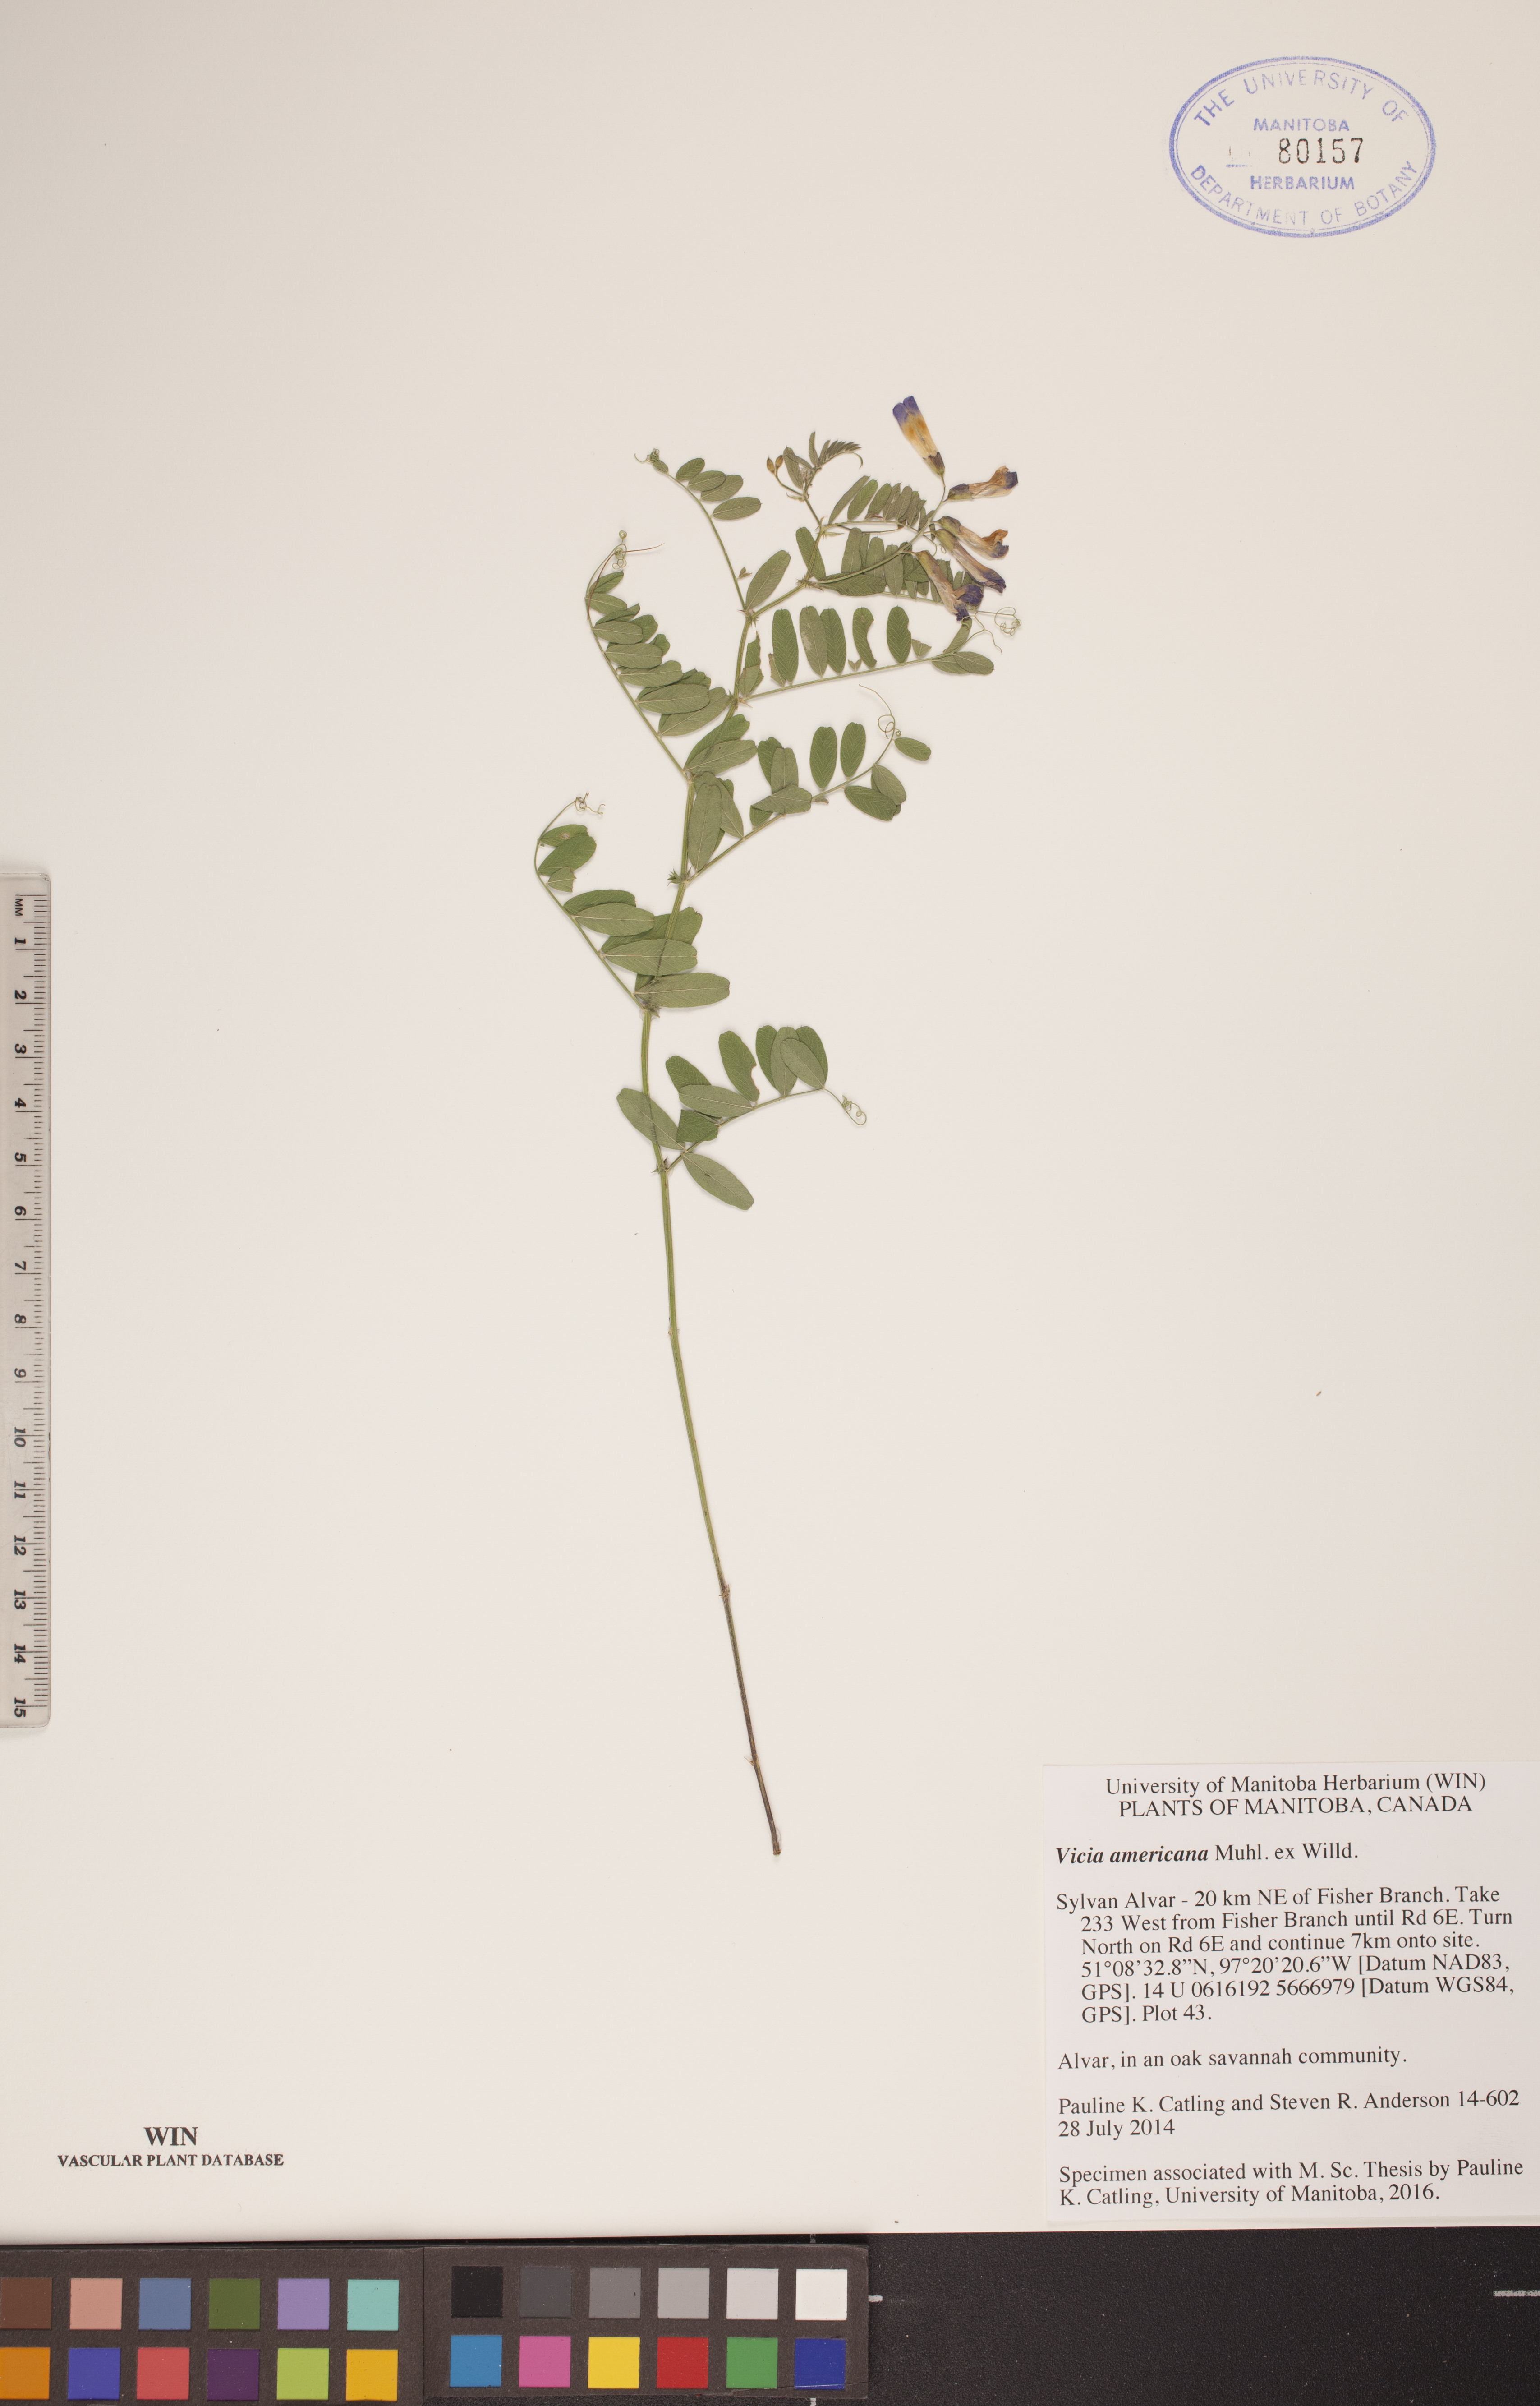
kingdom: Plantae
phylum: Tracheophyta
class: Magnoliopsida
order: Fabales
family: Fabaceae
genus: Vicia
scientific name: Vicia americana
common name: American vetch
